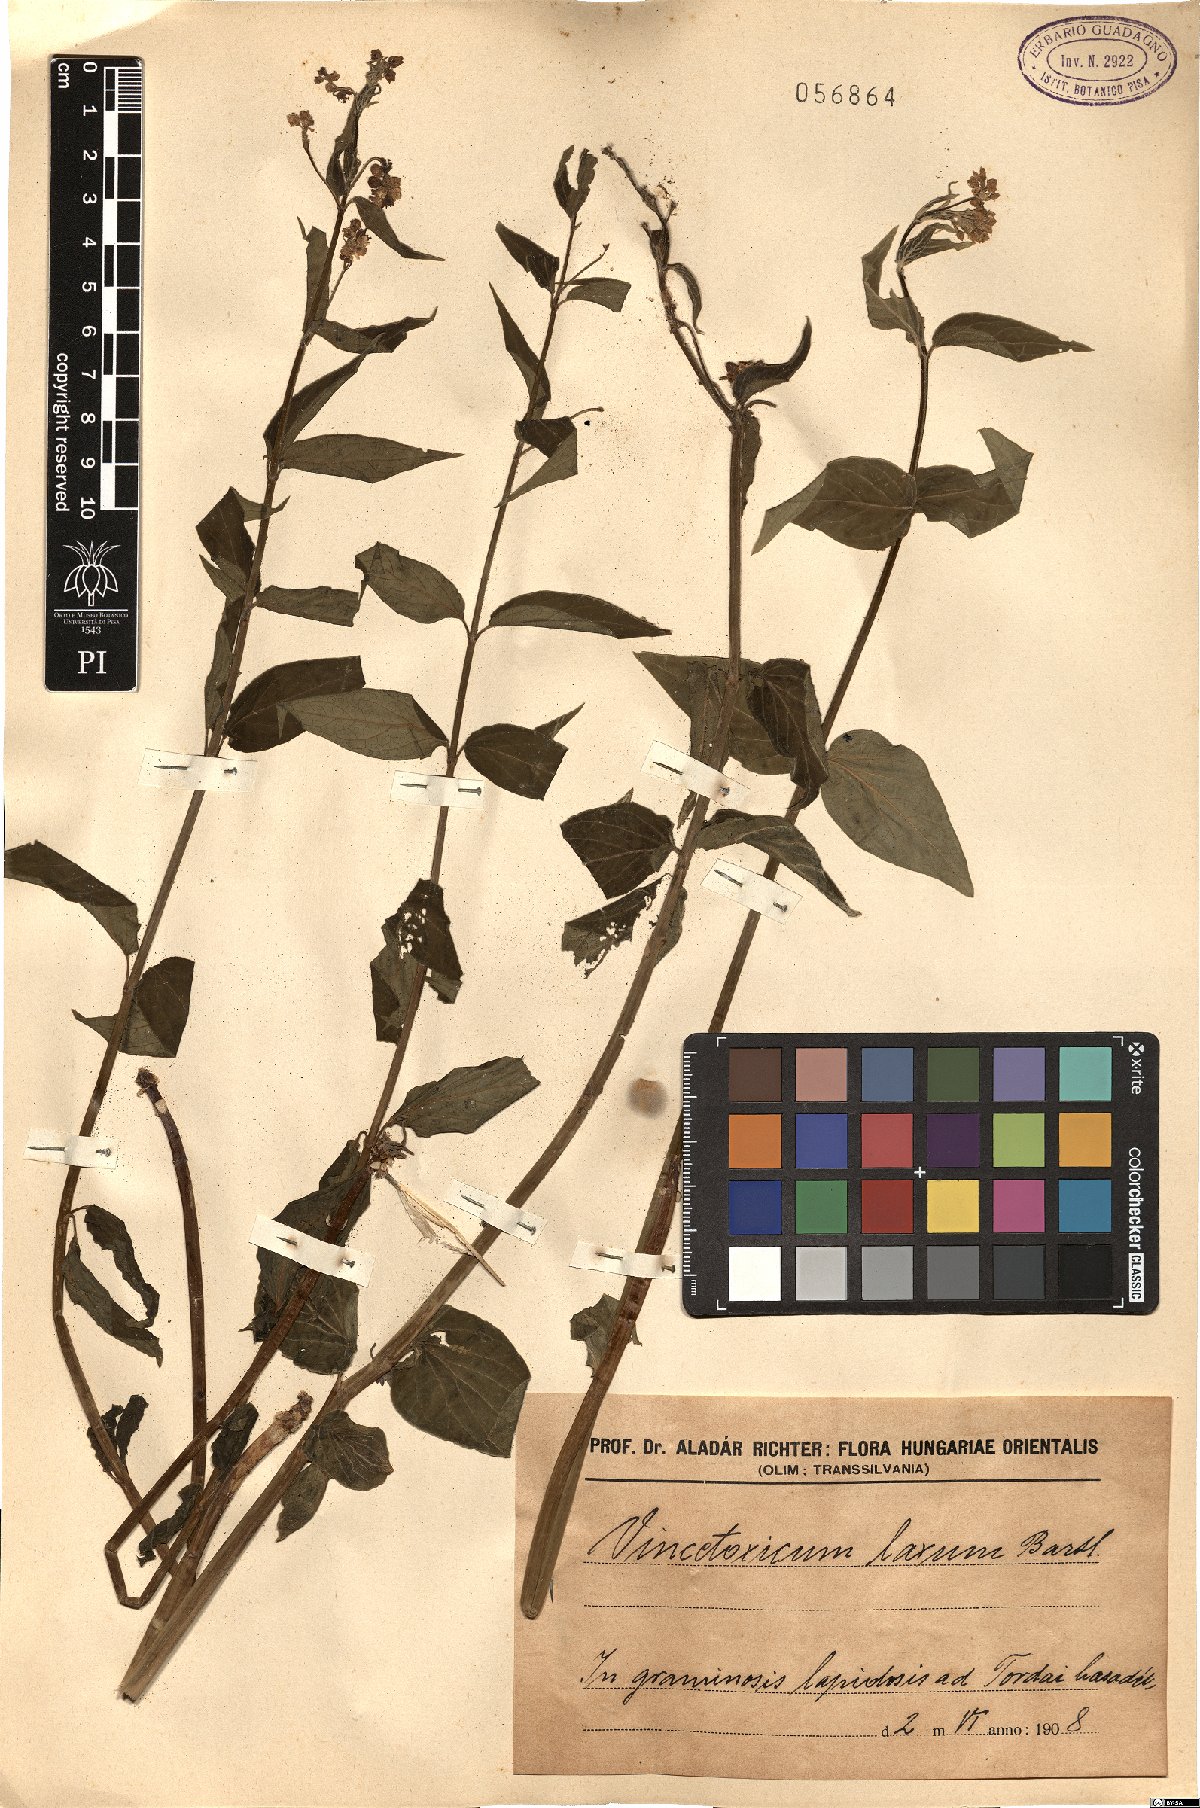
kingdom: Plantae
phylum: Tracheophyta
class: Magnoliopsida
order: Gentianales
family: Apocynaceae
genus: Vincetoxicum
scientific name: Vincetoxicum hirundinaria
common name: White swallowwort
